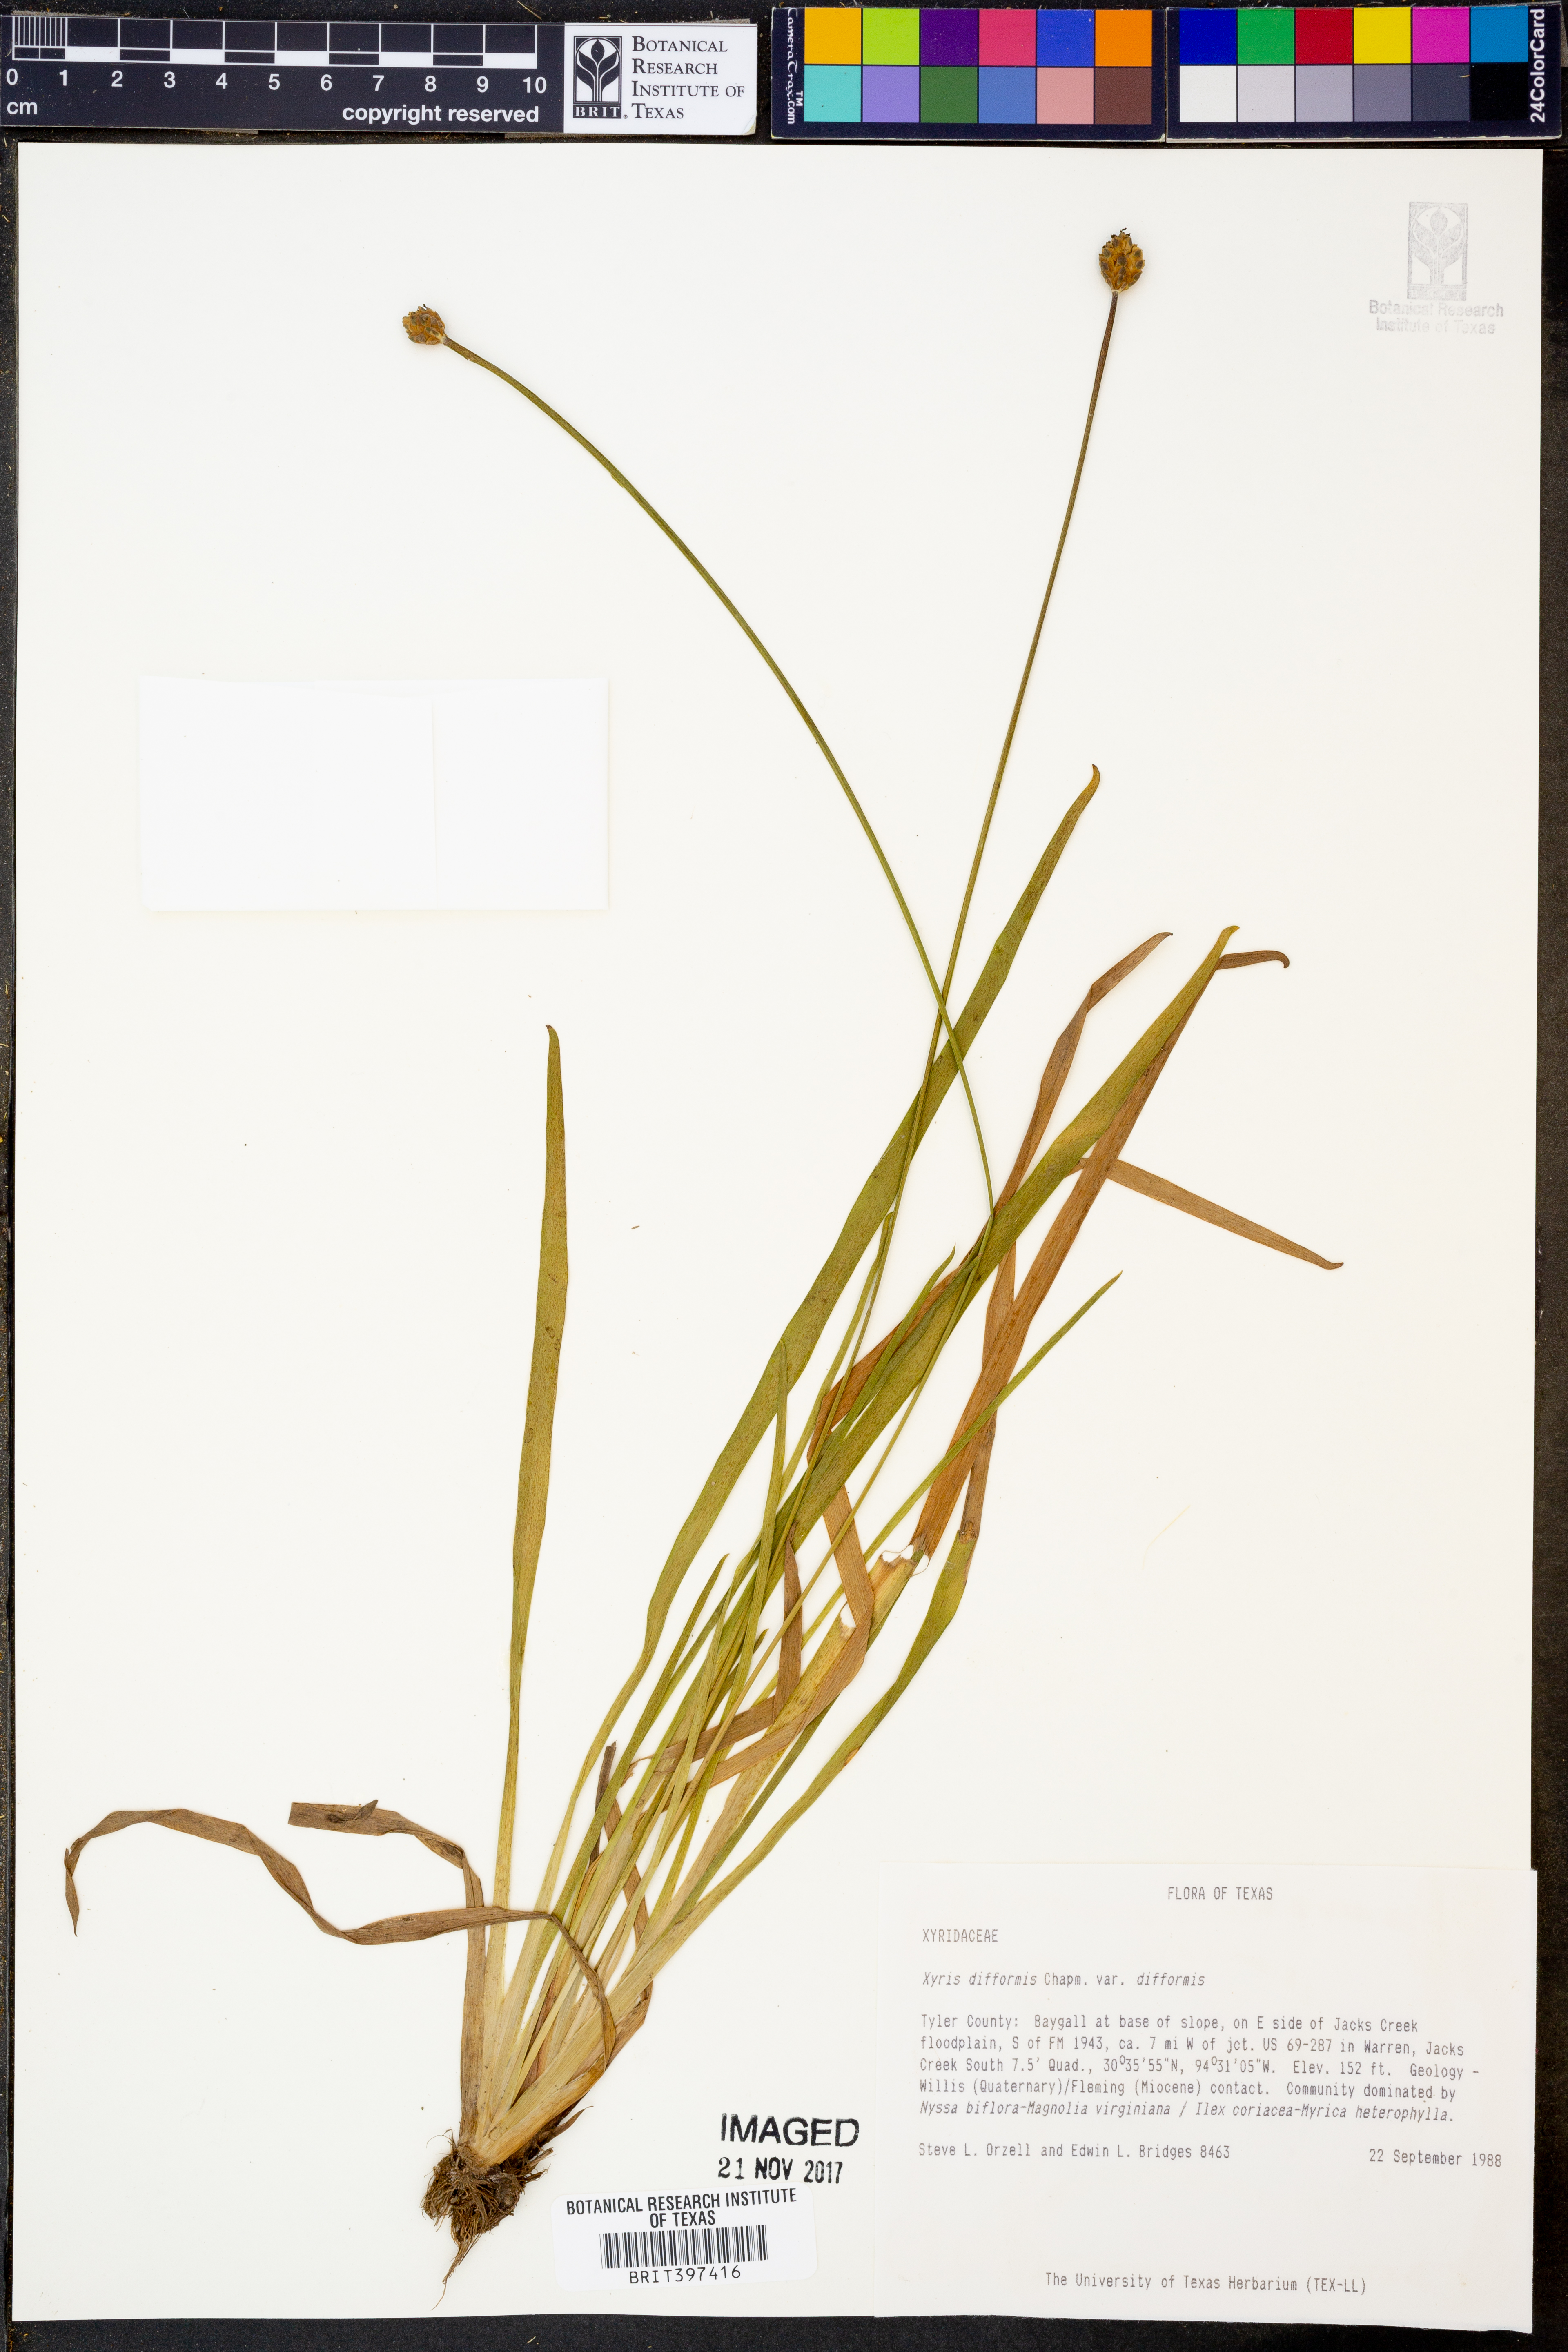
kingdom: Plantae
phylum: Tracheophyta
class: Liliopsida
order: Poales
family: Xyridaceae
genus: Xyris
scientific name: Xyris difformis
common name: Bog yellow-eyed-grass
